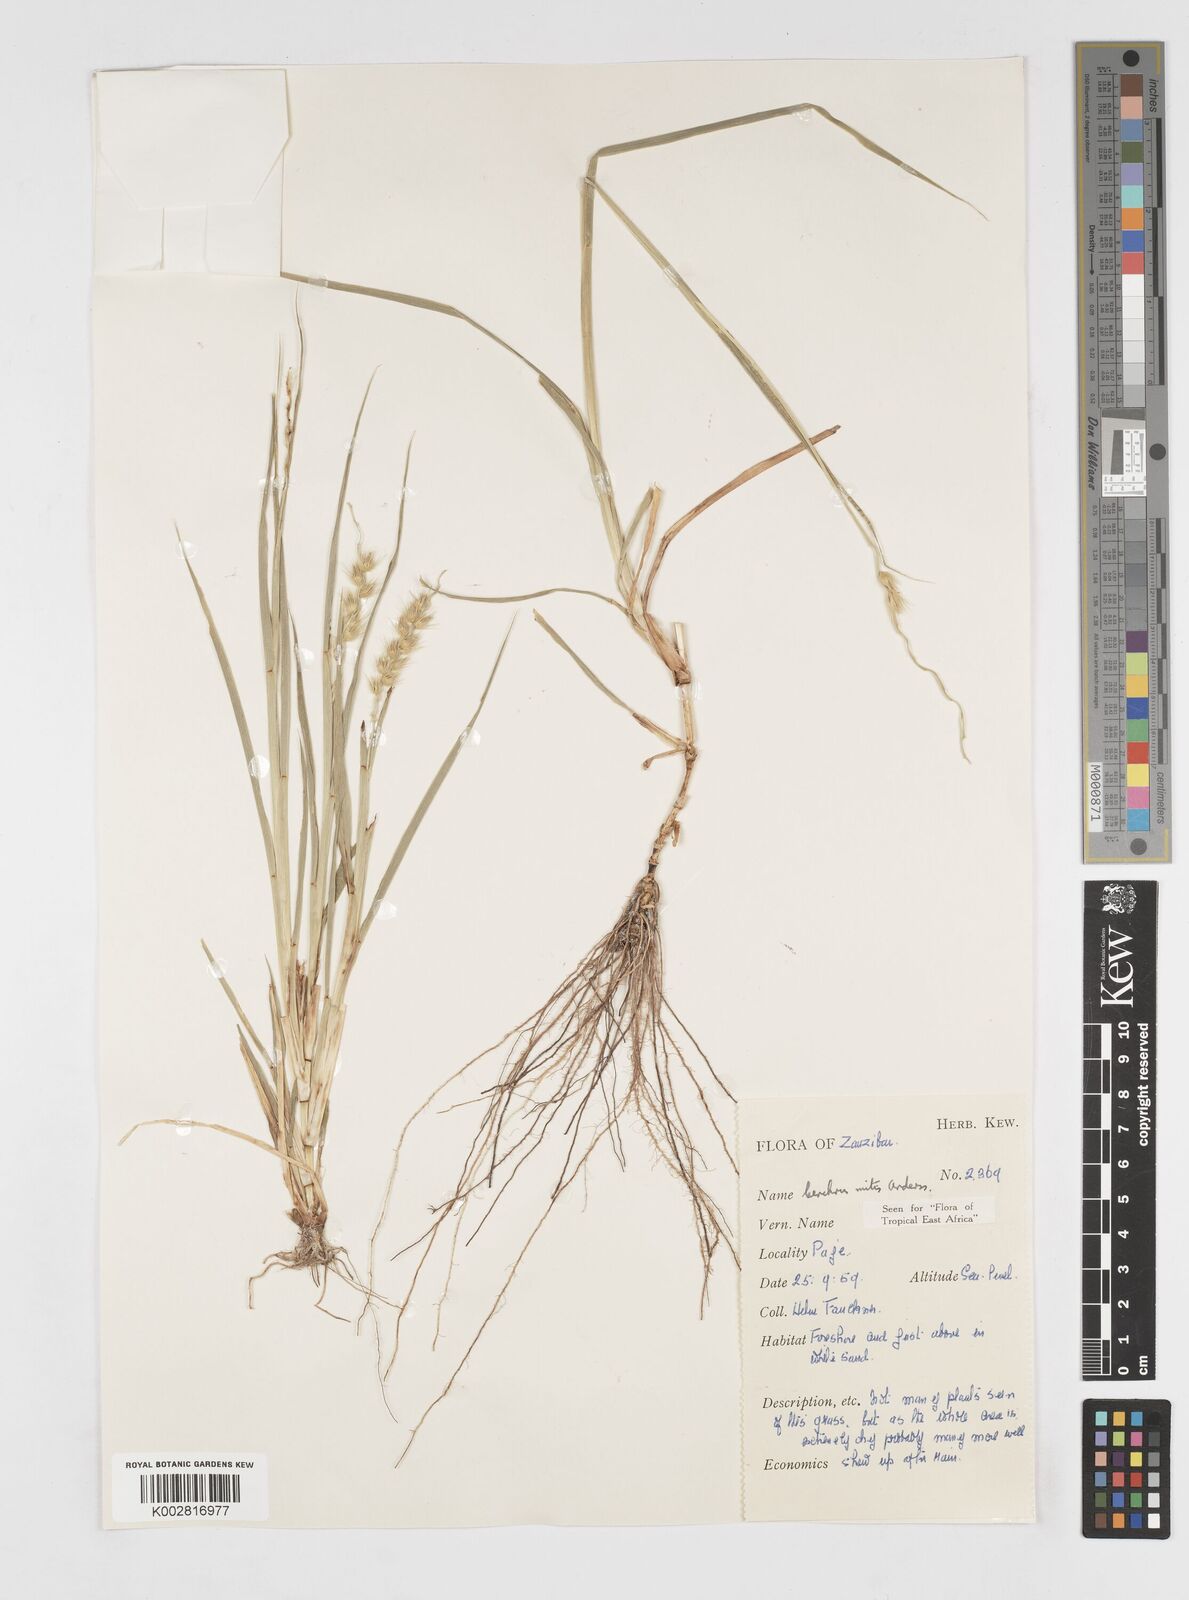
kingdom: Plantae
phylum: Tracheophyta
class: Liliopsida
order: Poales
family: Poaceae
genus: Cenchrus
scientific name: Cenchrus mitis
